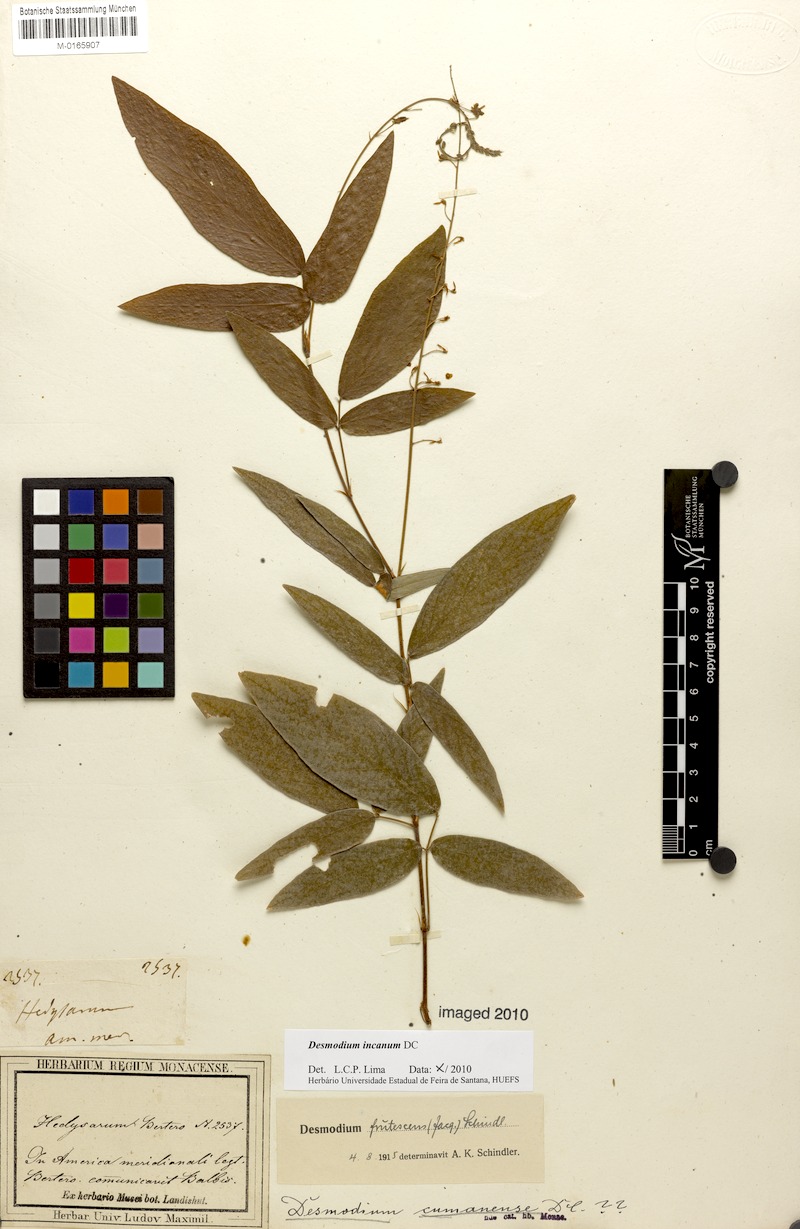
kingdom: Plantae
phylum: Tracheophyta
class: Magnoliopsida
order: Fabales
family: Fabaceae
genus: Desmodium
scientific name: Desmodium incanum
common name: Tickclover
